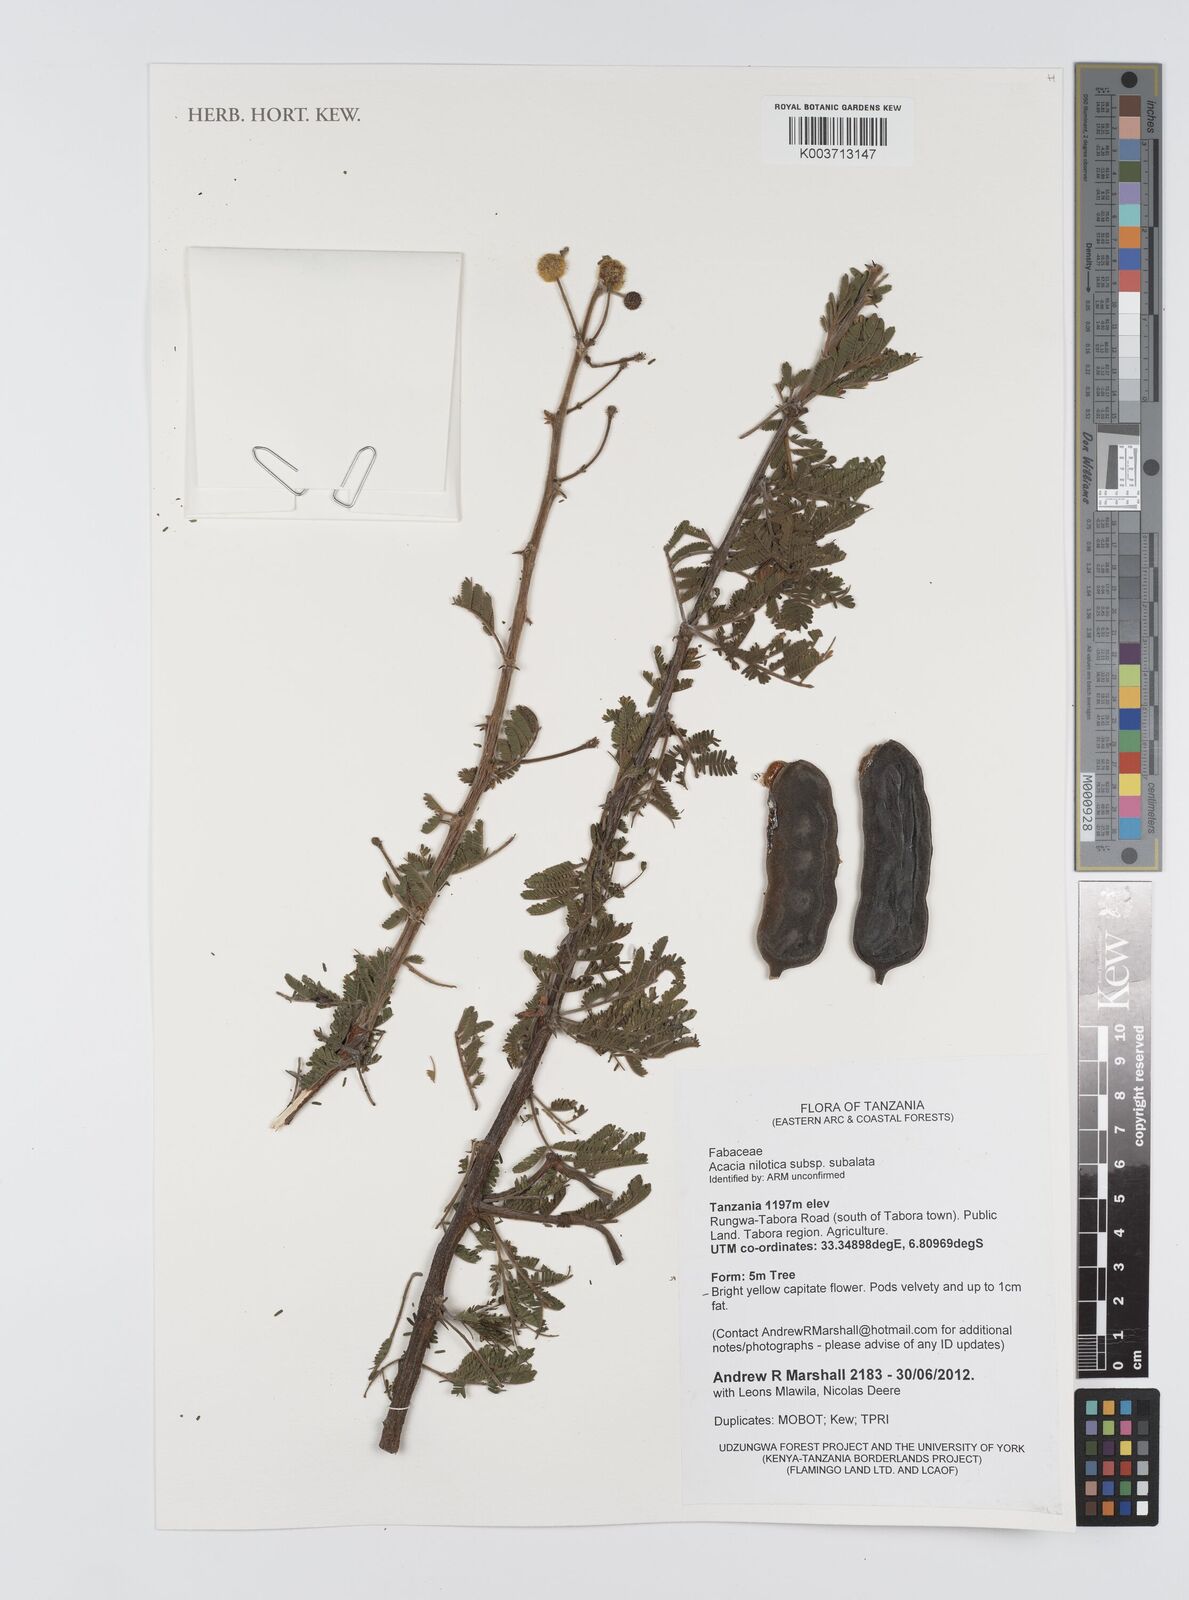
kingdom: Plantae
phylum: Tracheophyta
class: Magnoliopsida
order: Fabales
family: Fabaceae
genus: Vachellia
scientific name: Vachellia nilotica
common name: Arabic gumtree
